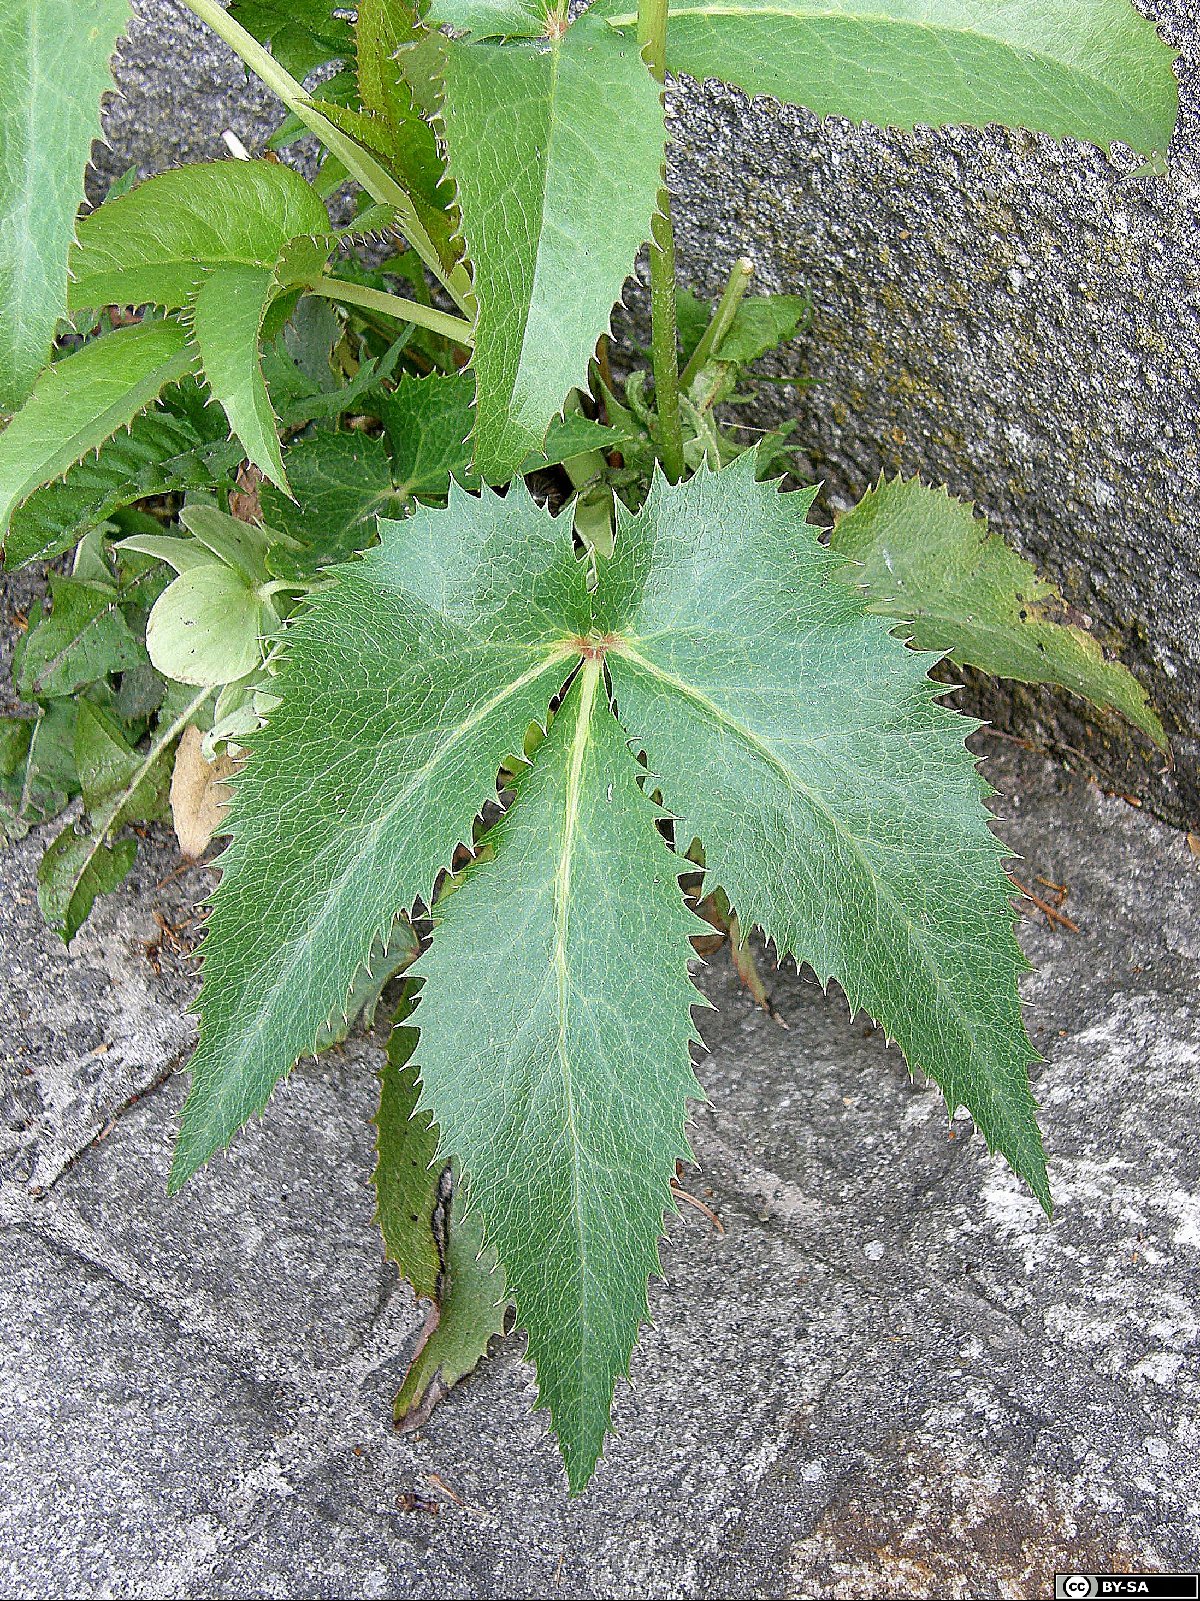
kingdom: Plantae
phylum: Tracheophyta
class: Magnoliopsida
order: Ranunculales
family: Ranunculaceae
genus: Helleborus
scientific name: Helleborus argutifolius
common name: Corsican hellebore
